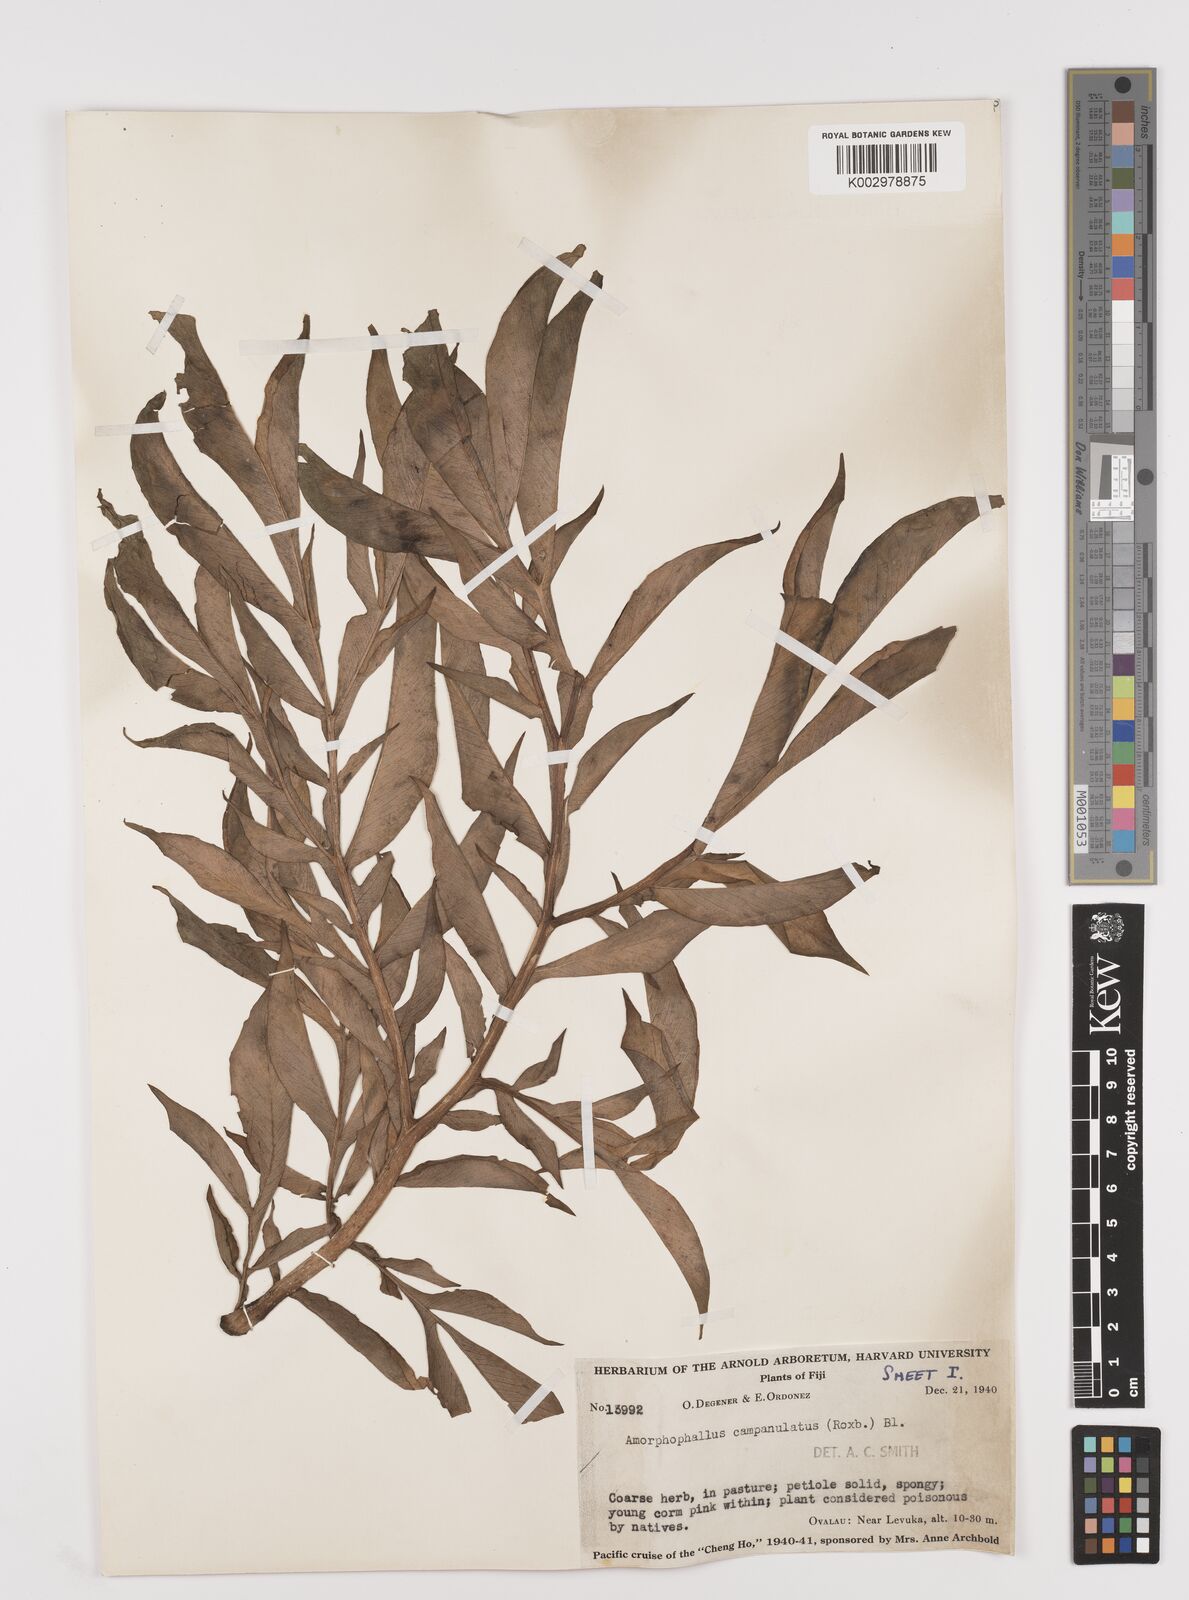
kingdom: Plantae
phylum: Tracheophyta
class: Liliopsida
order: Alismatales
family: Araceae
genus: Amorphophallus
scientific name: Amorphophallus paeoniifolius
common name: Telinga-potato
